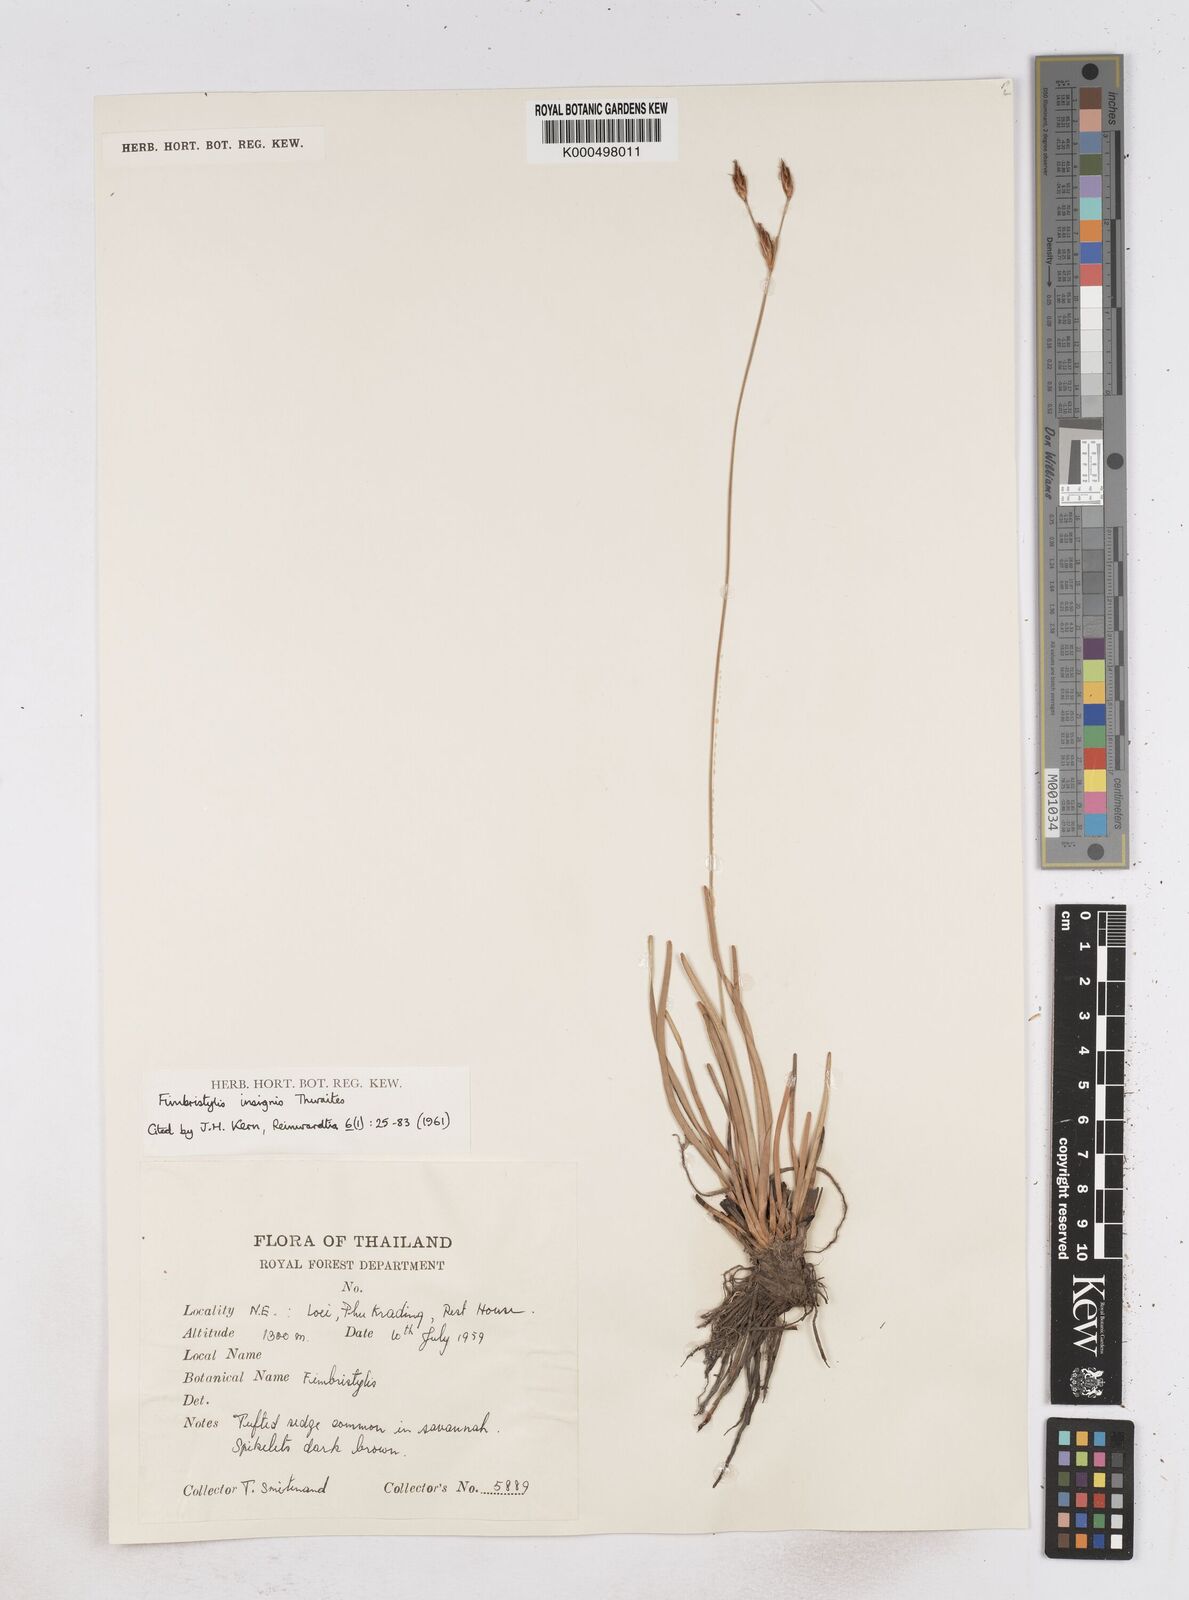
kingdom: Plantae
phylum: Tracheophyta
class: Liliopsida
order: Poales
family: Cyperaceae
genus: Fimbristylis
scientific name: Fimbristylis insignis
